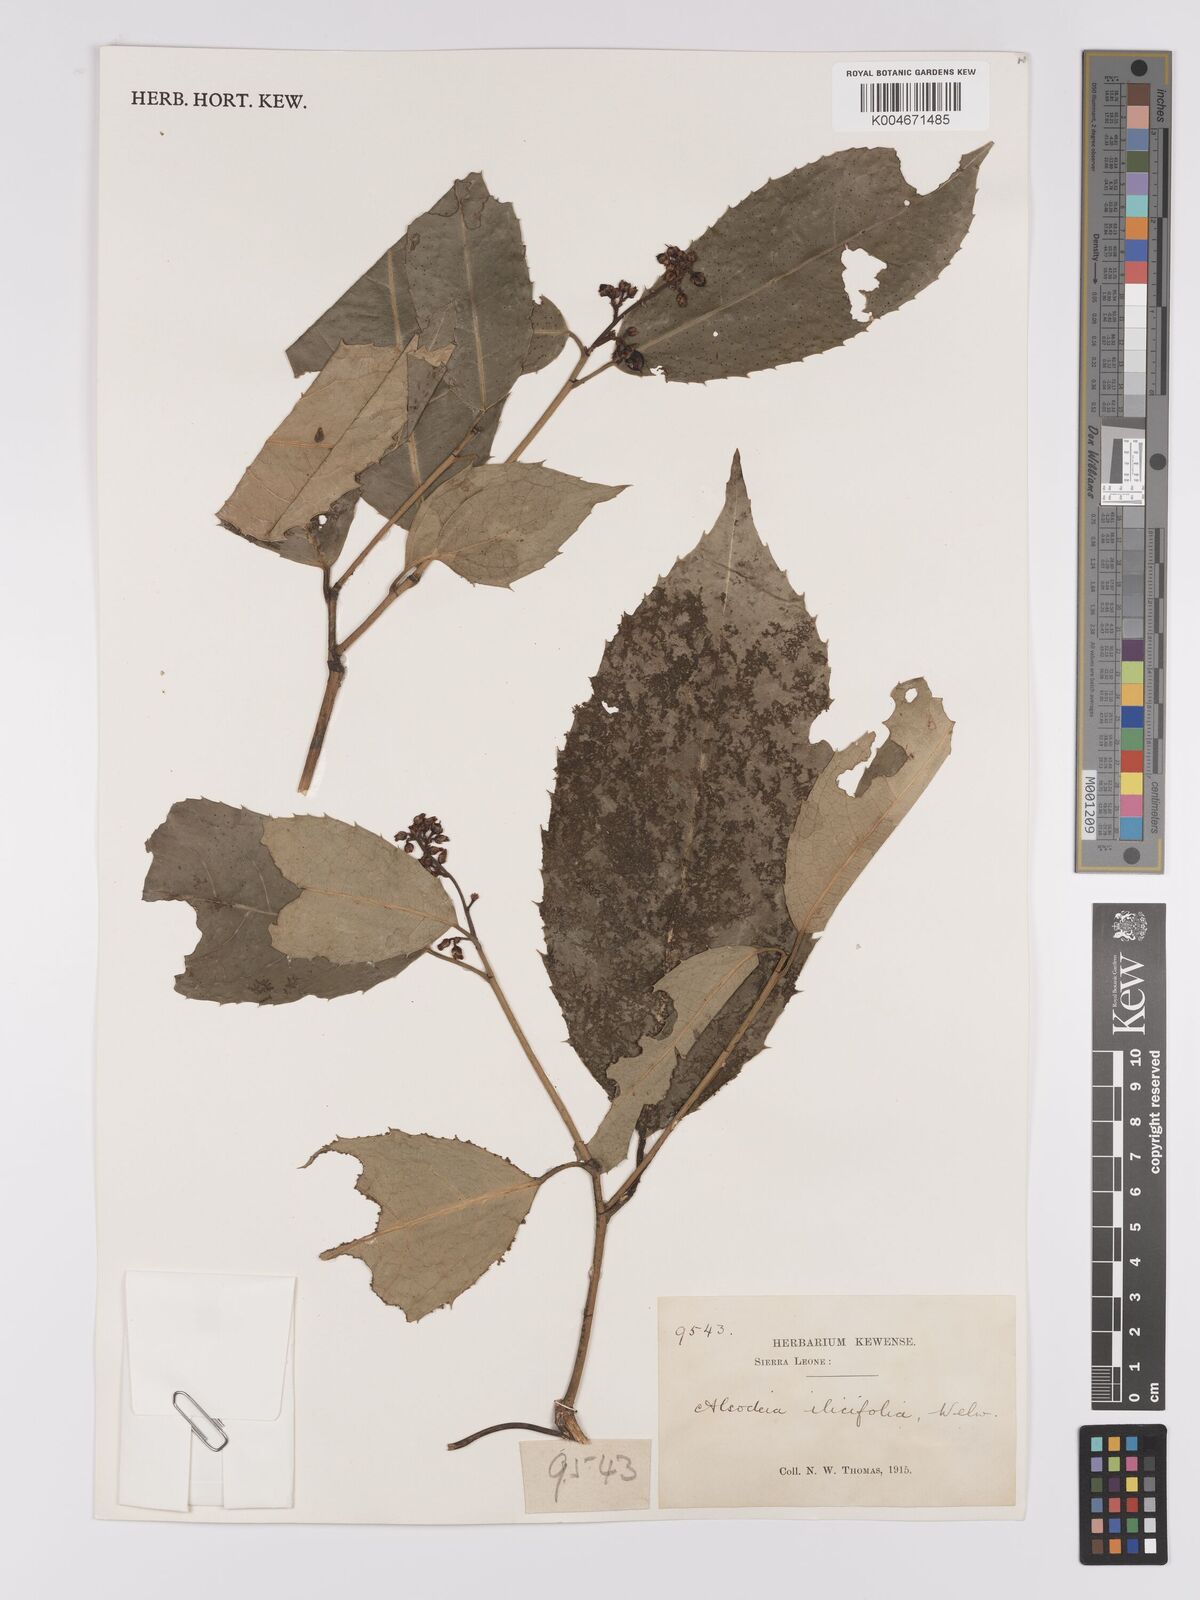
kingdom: Plantae
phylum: Tracheophyta
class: Magnoliopsida
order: Malpighiales
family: Violaceae
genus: Rinorea
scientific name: Rinorea ilicifolia
